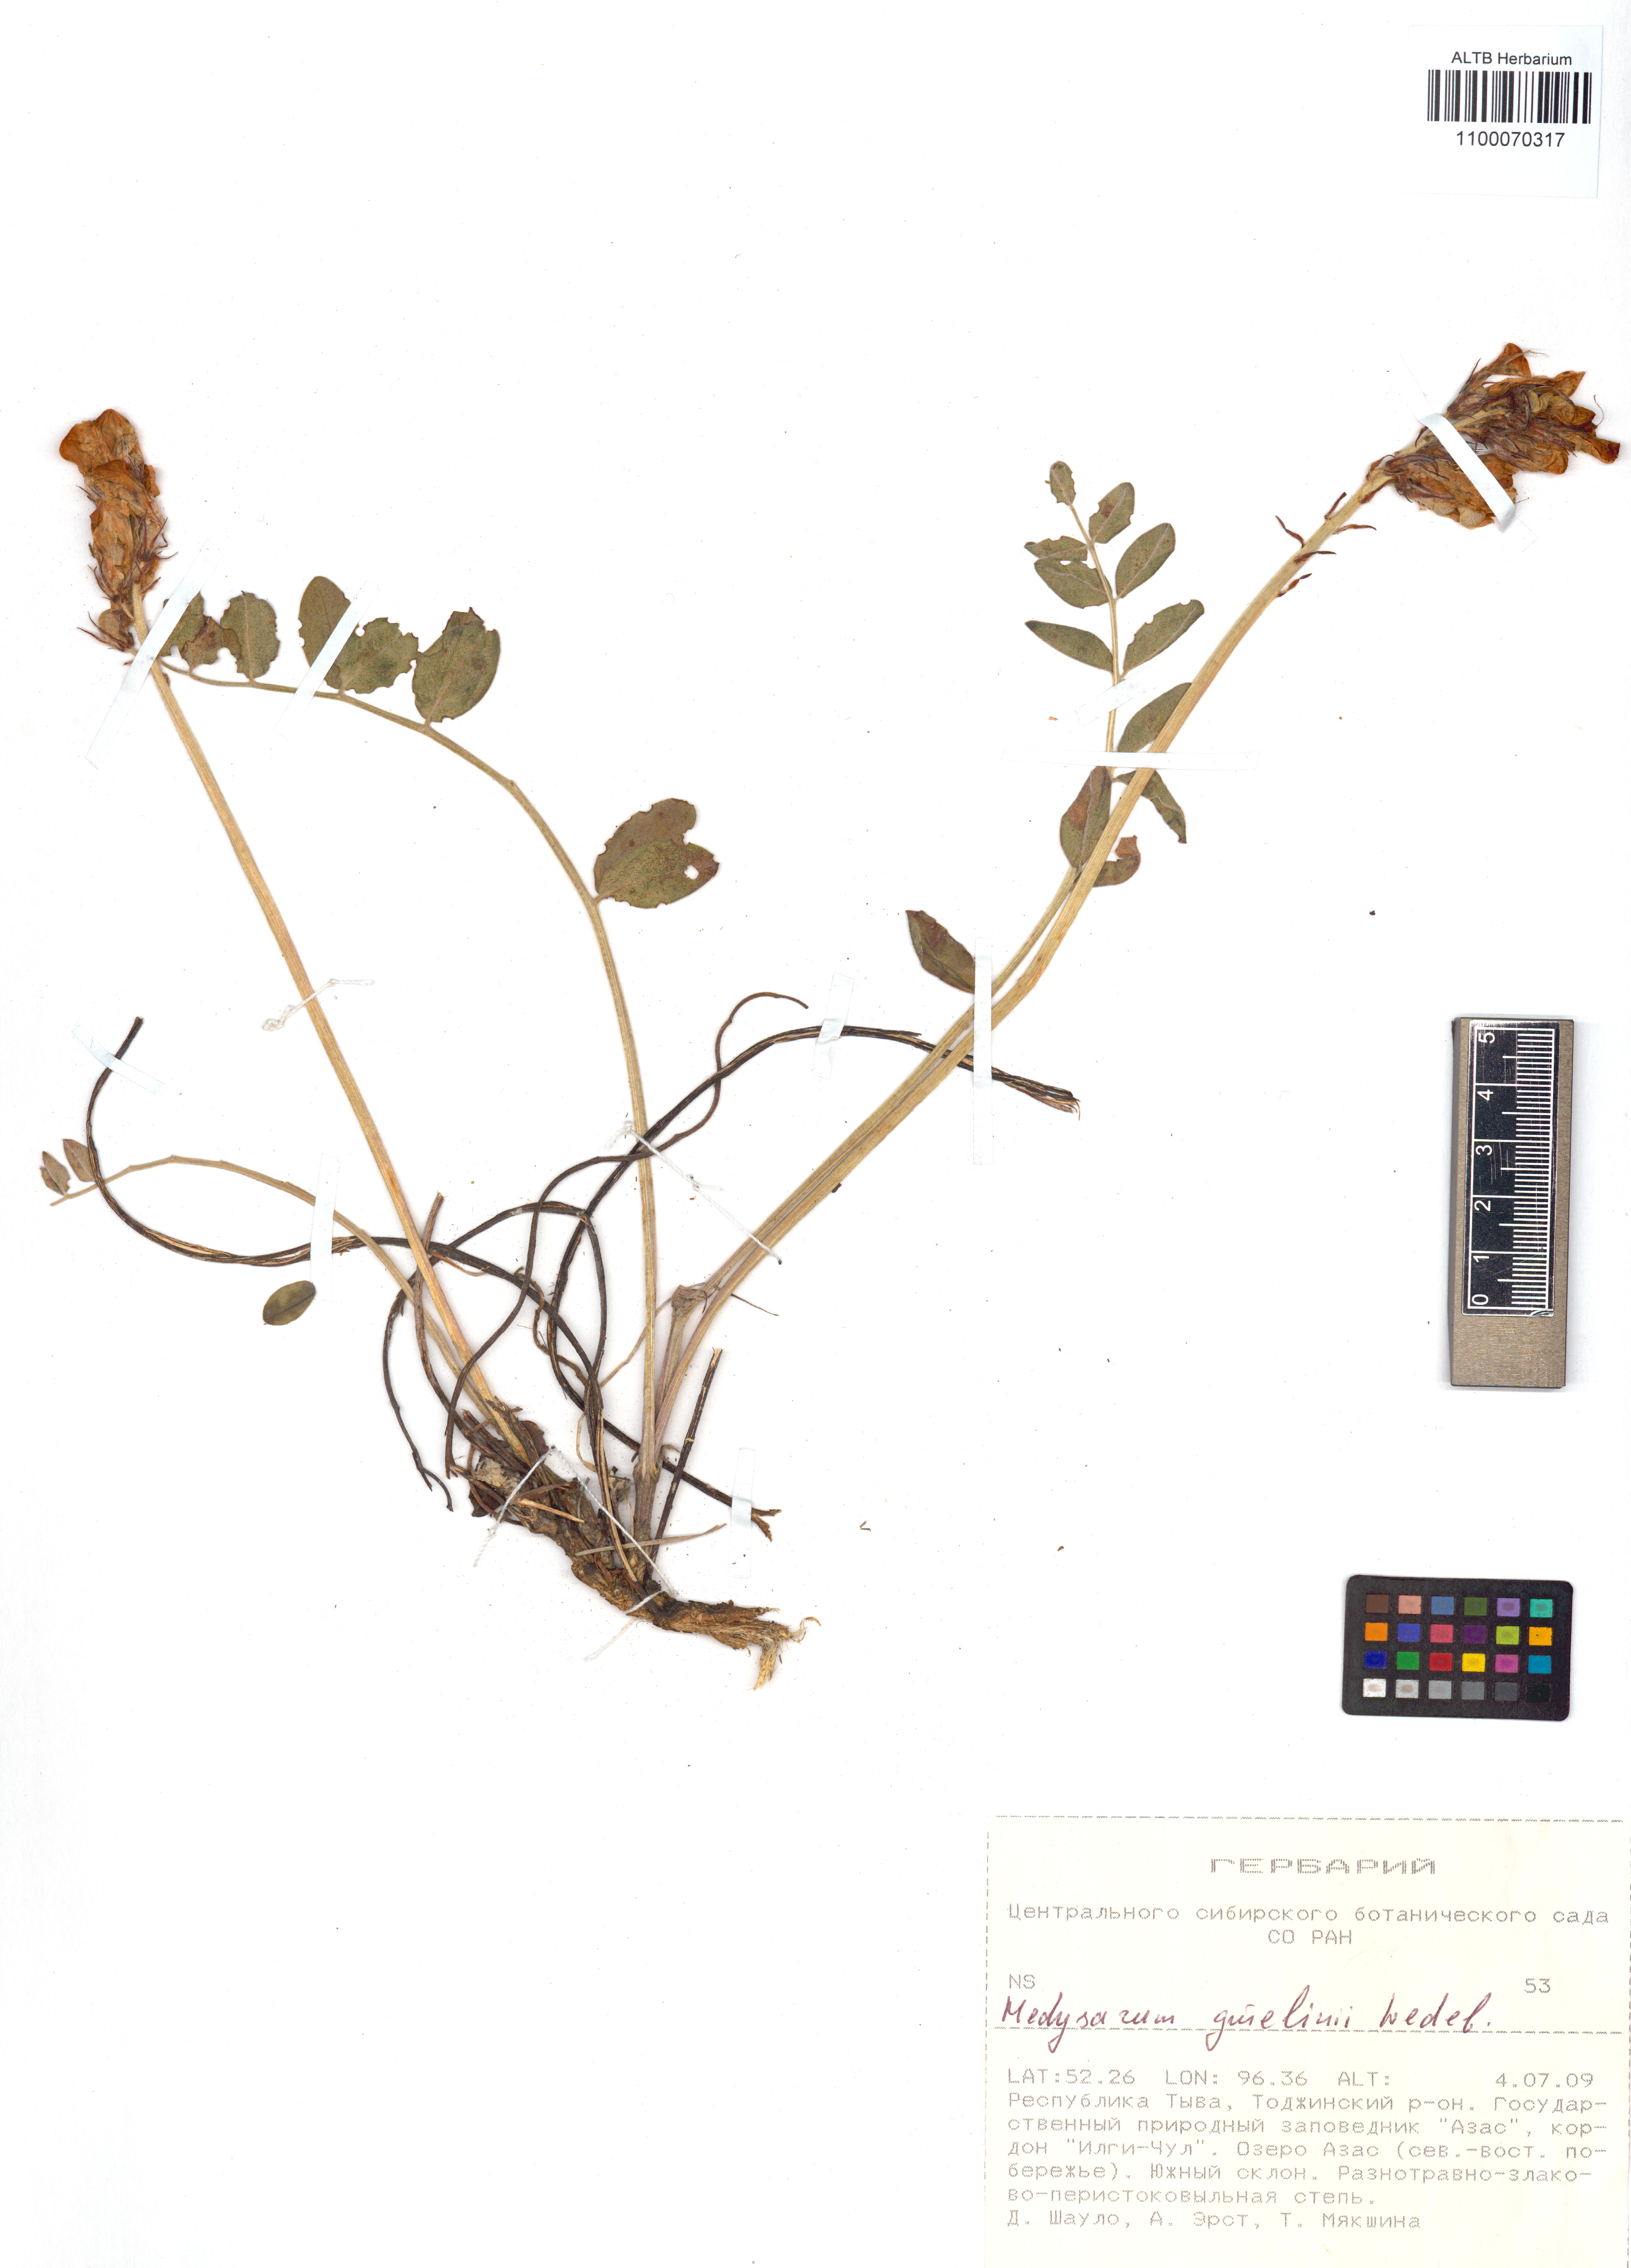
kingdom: Plantae
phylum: Tracheophyta
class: Magnoliopsida
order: Fabales
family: Fabaceae
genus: Hedysarum
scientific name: Hedysarum gmelinii
